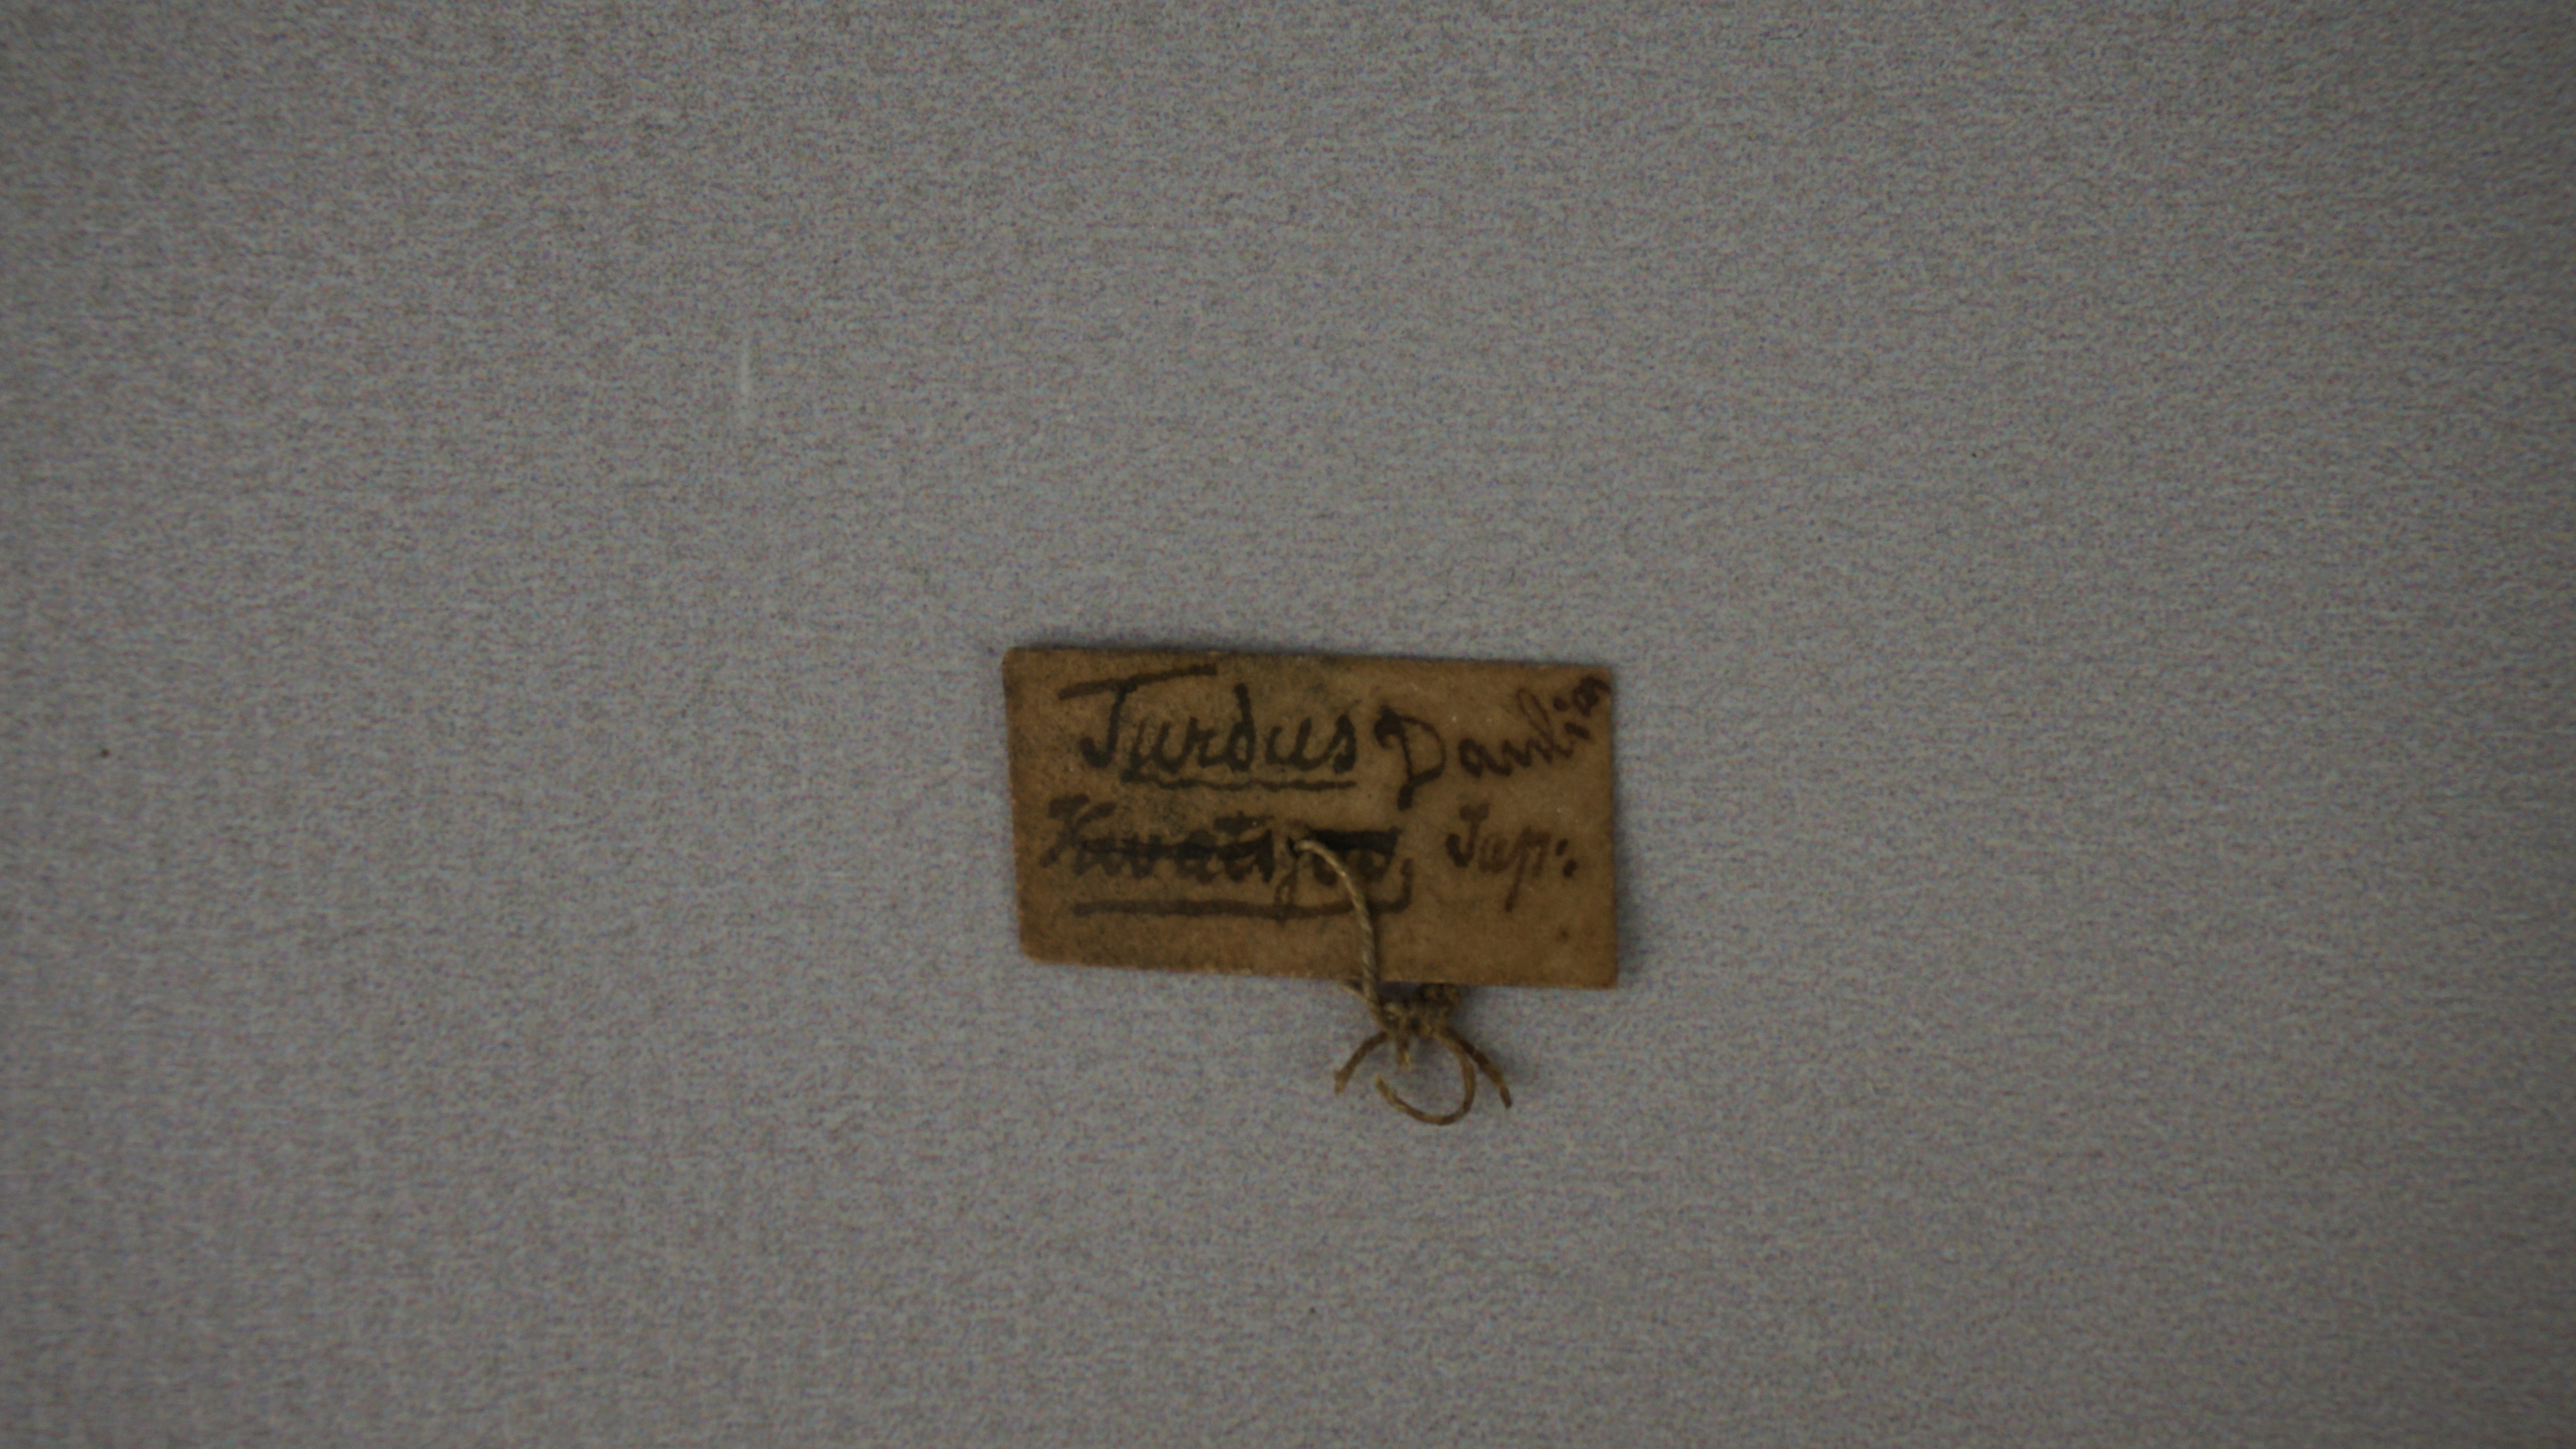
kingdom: Animalia
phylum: Chordata
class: Aves
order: Passeriformes
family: Turdidae
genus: Turdus
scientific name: Turdus pallidus
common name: Pale thrush
